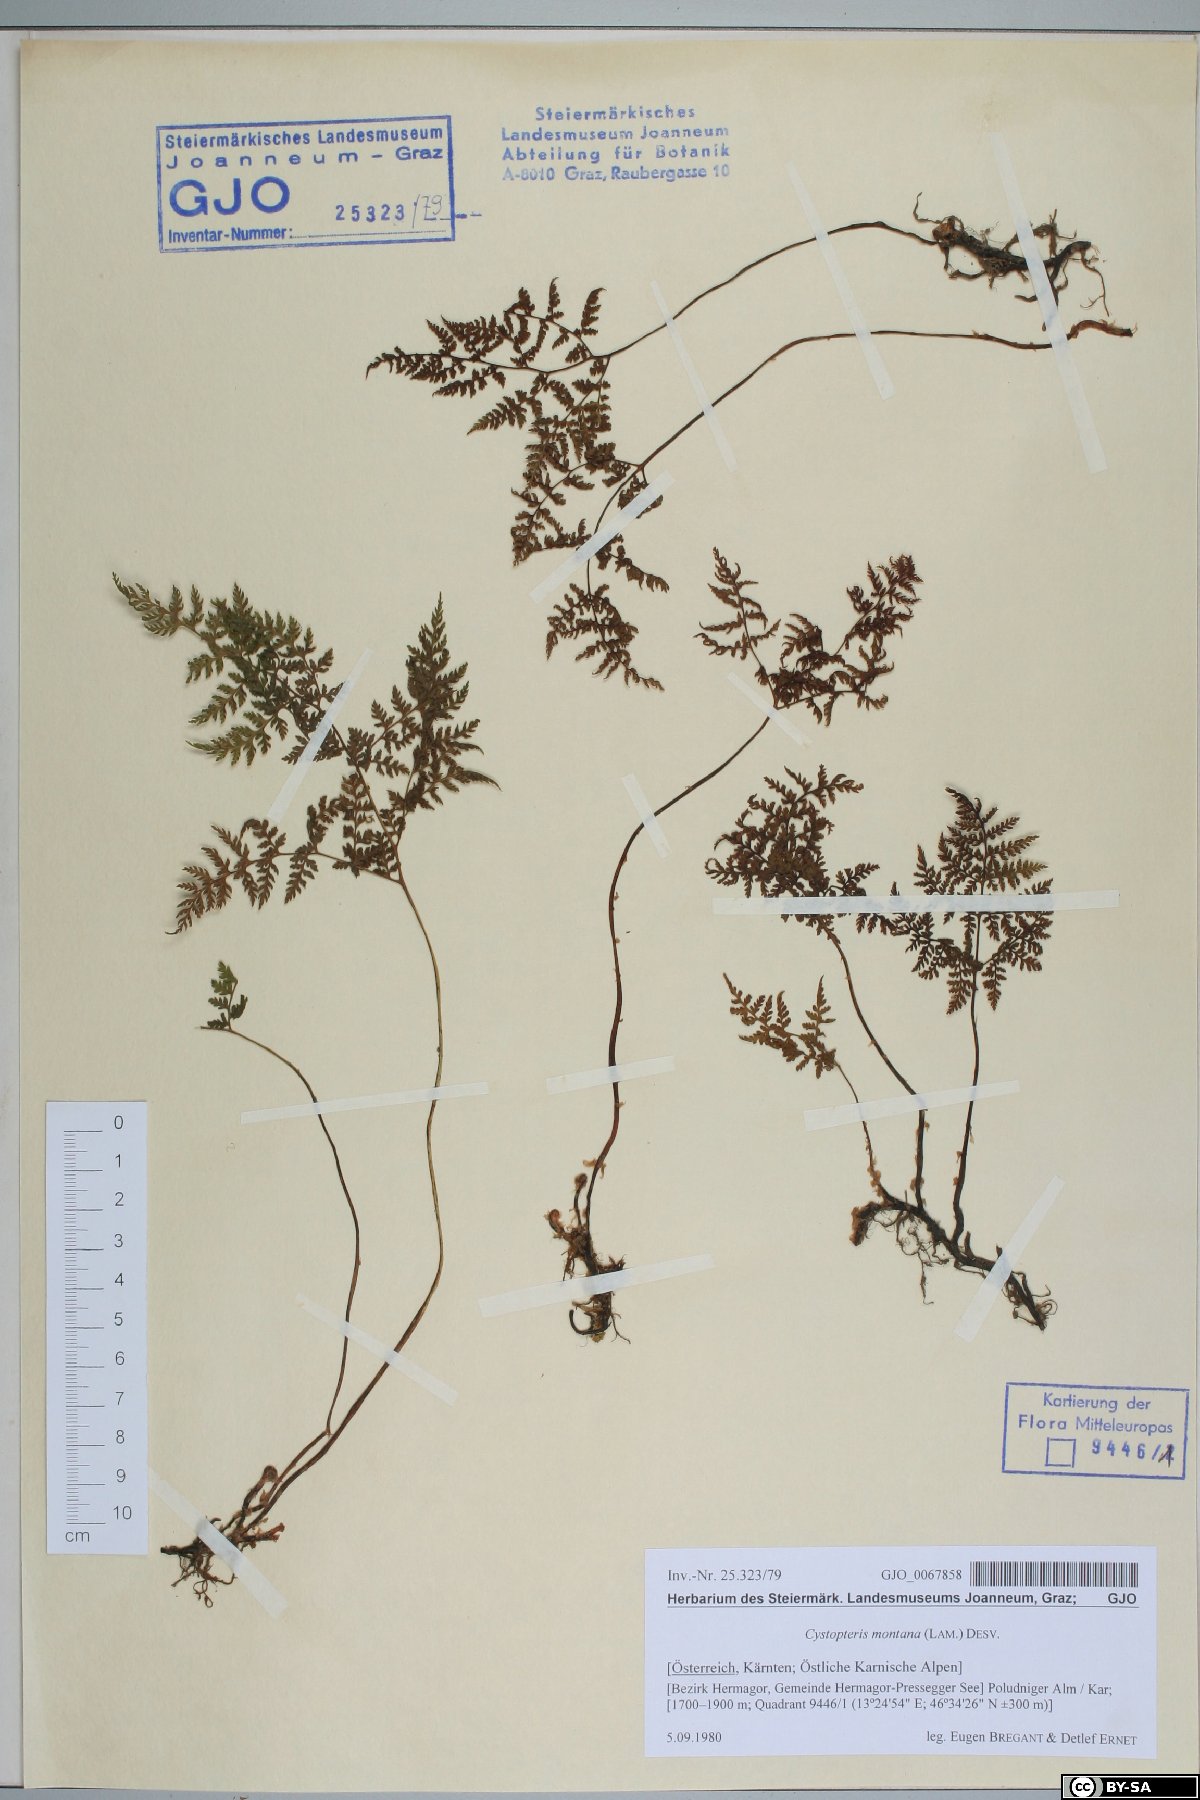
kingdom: Plantae
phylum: Tracheophyta
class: Polypodiopsida
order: Polypodiales
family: Cystopteridaceae
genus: Cystopteris
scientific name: Cystopteris montana
